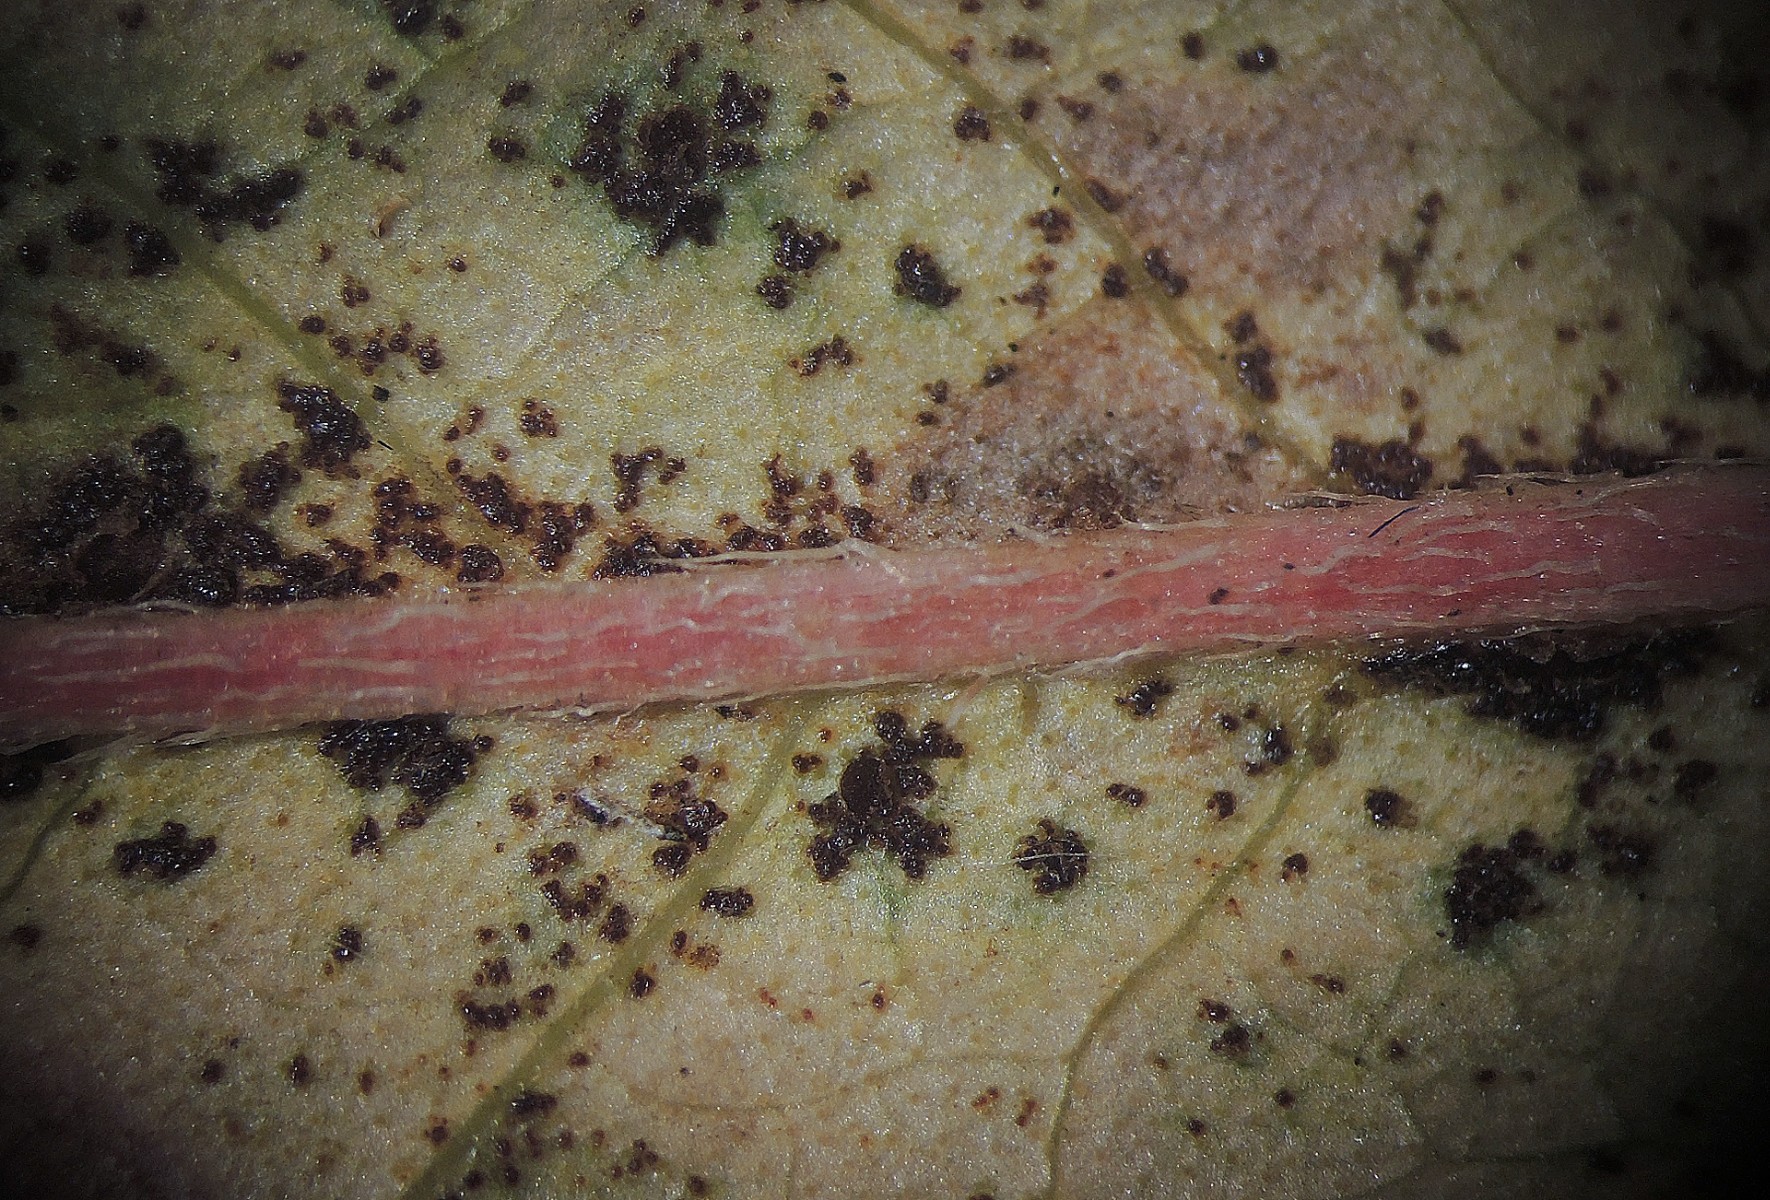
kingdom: Fungi
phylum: Basidiomycota
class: Pucciniomycetes
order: Pucciniales
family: Pucciniaceae
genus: Puccinia
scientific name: Puccinia polygoni-amphibii
